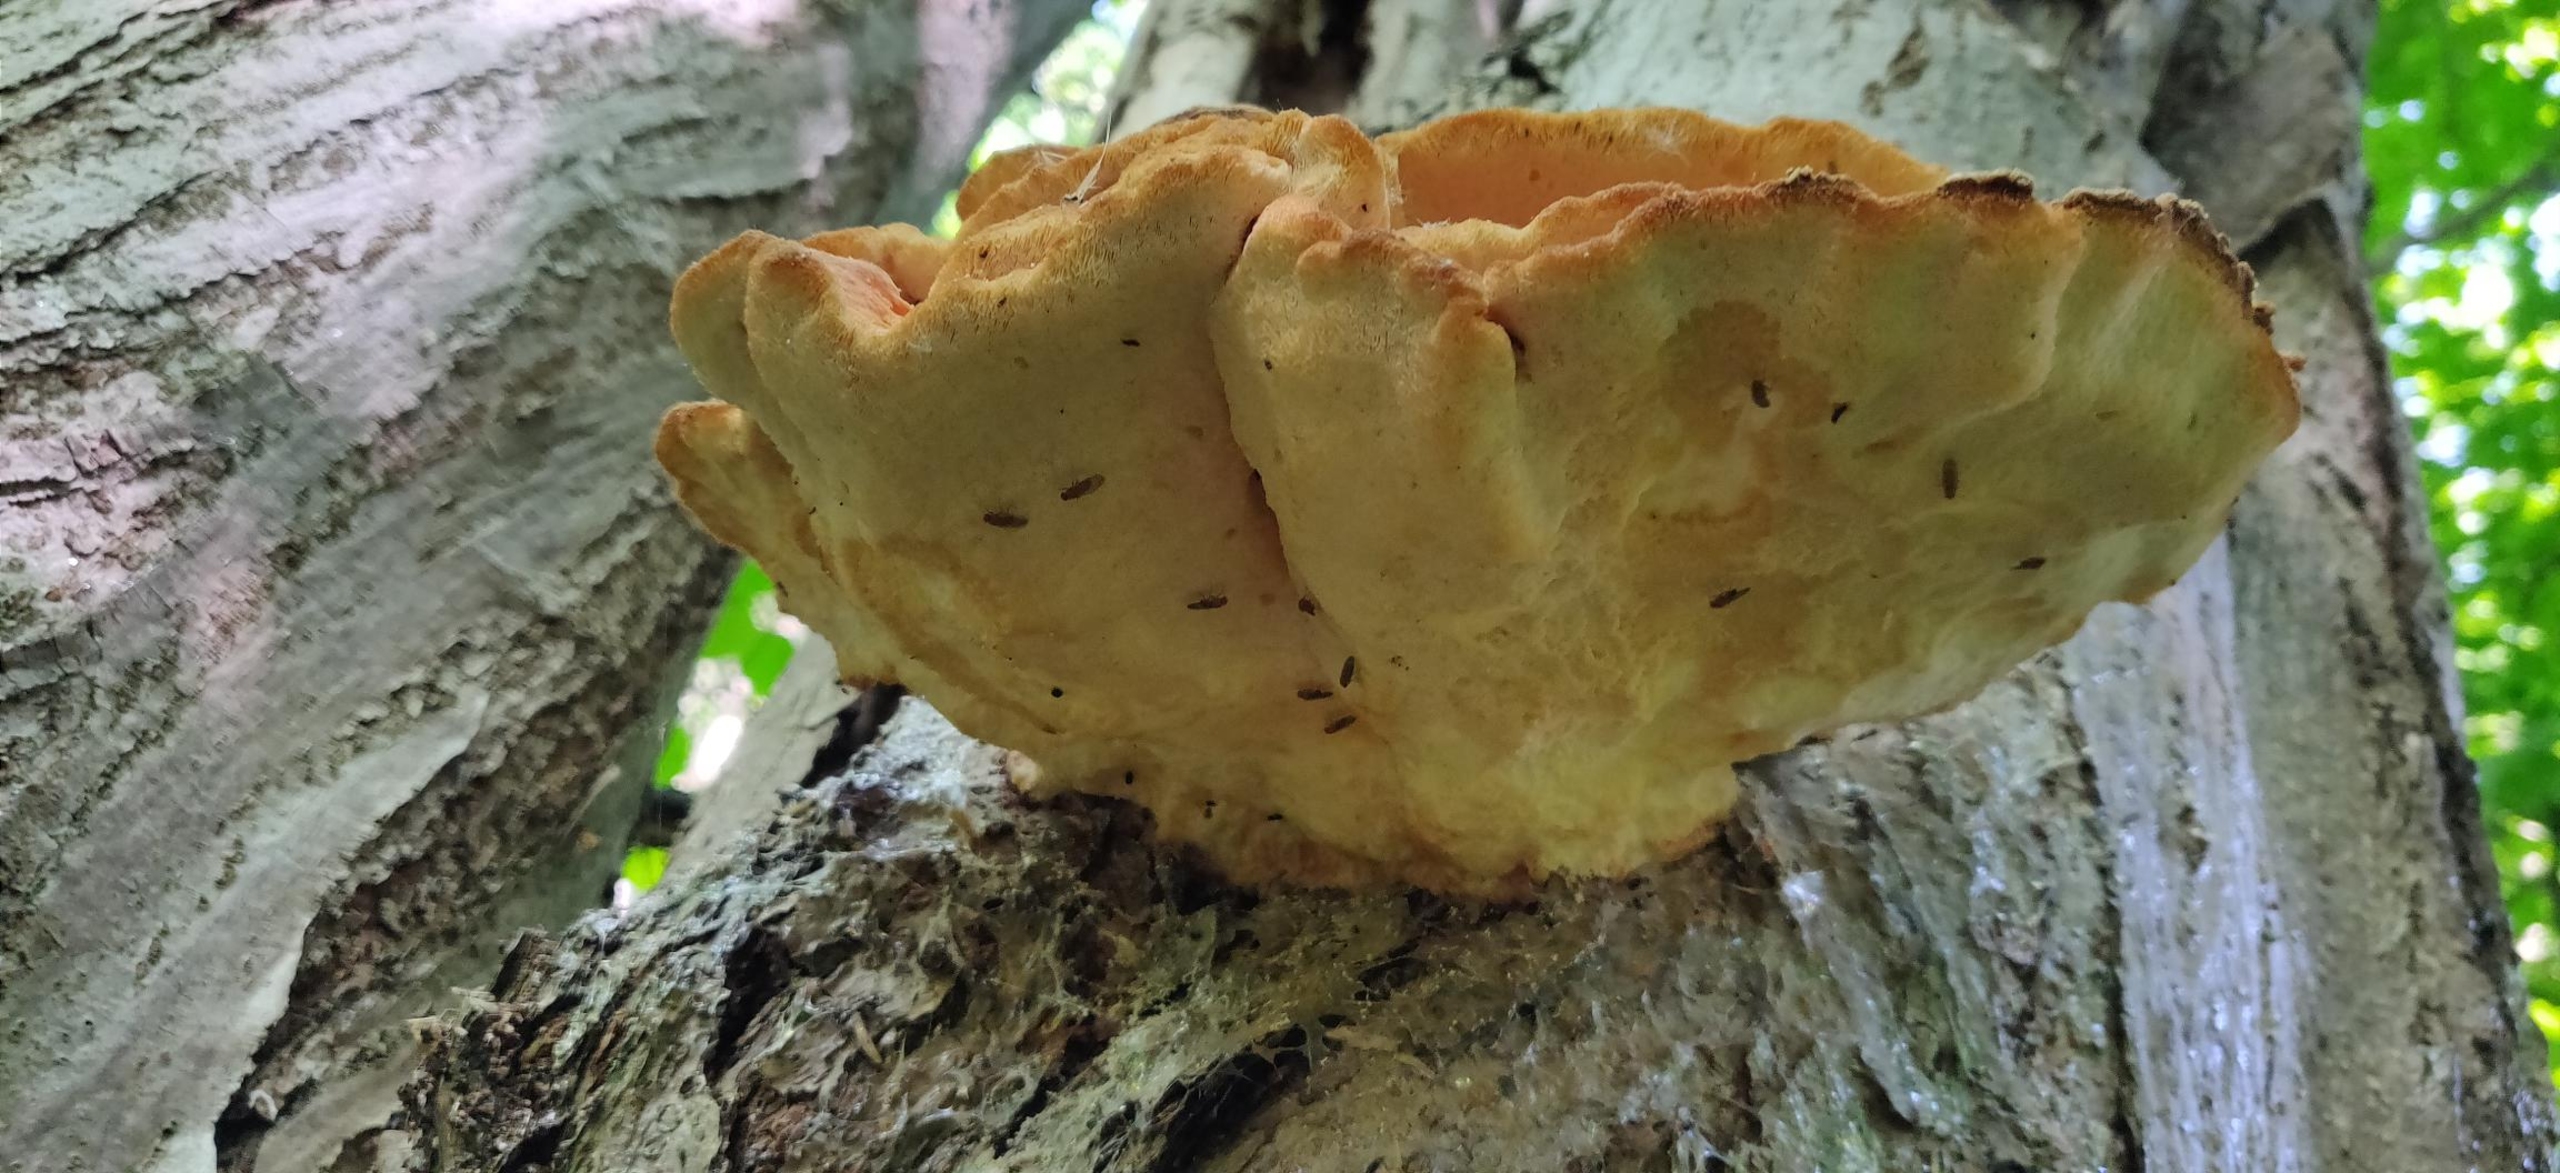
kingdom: Fungi
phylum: Basidiomycota
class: Agaricomycetes
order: Polyporales
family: Laetiporaceae
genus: Laetiporus
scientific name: Laetiporus sulphureus
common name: Svovlporesvamp
